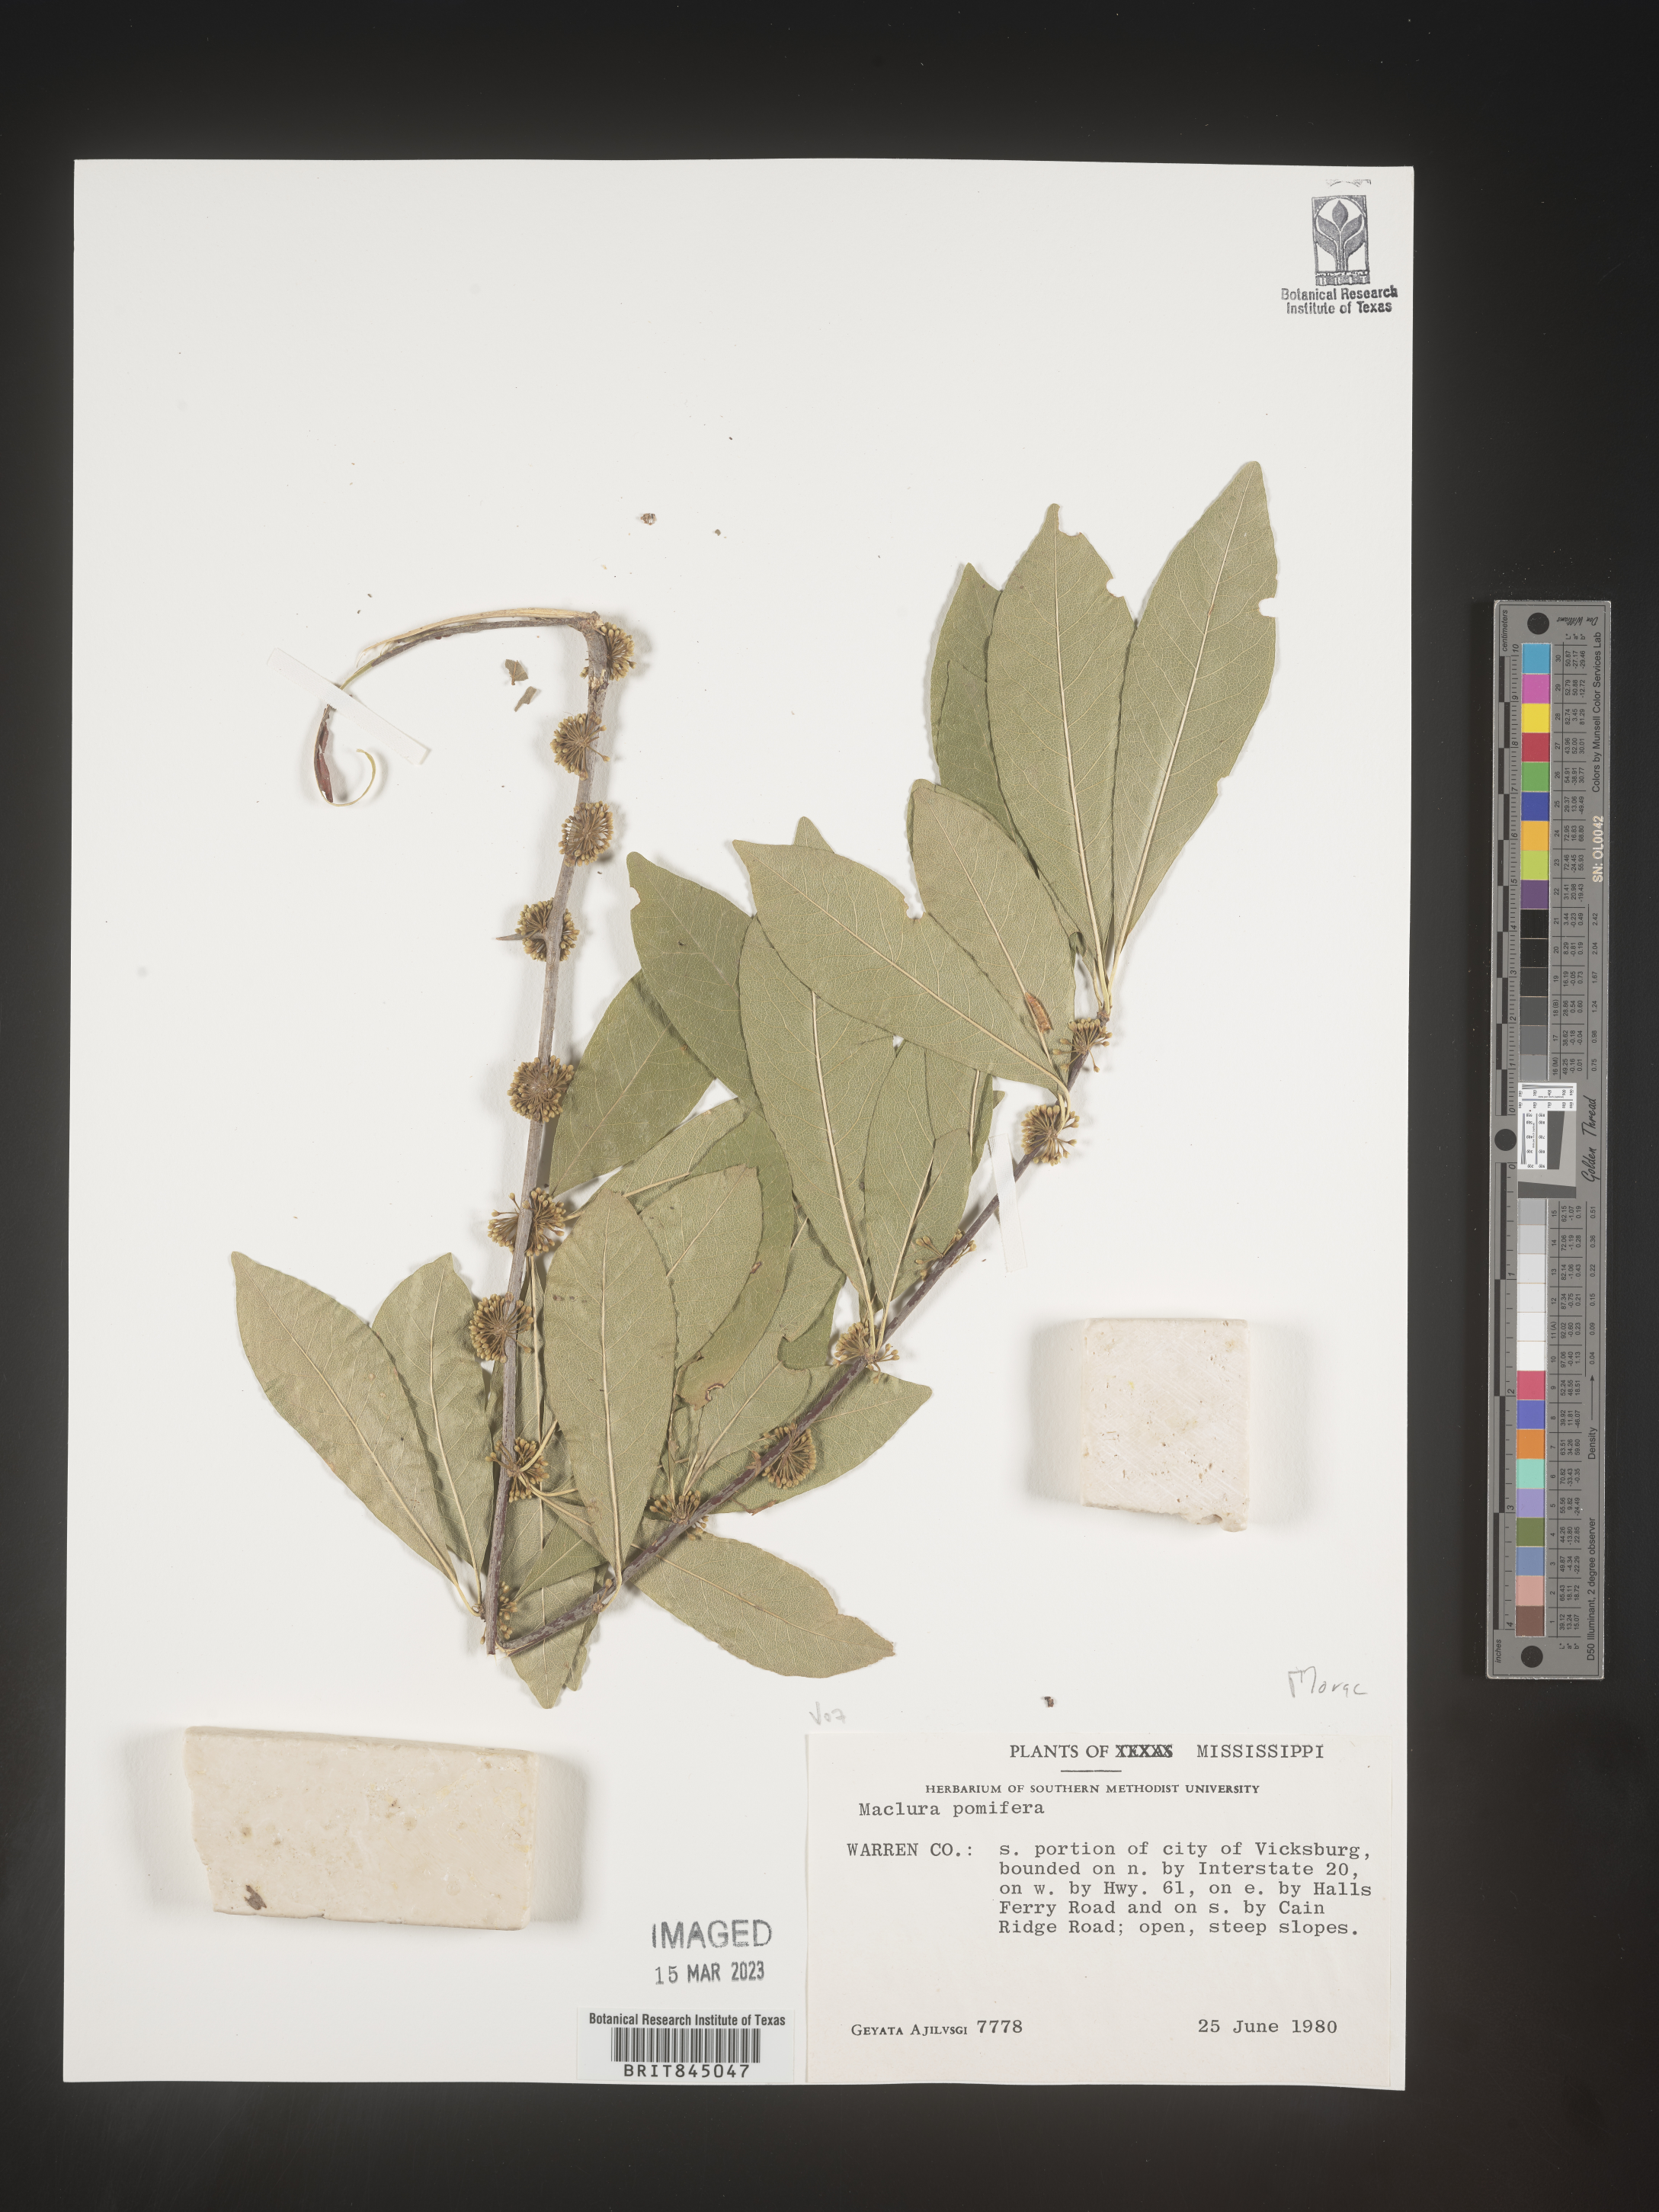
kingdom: Plantae
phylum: Tracheophyta
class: Magnoliopsida
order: Rosales
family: Moraceae
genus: Maclura
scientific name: Maclura pomifera
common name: Osage-orange
